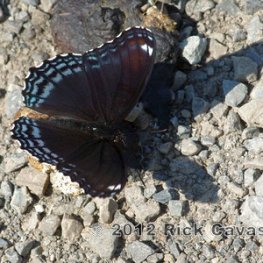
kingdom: Animalia
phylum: Arthropoda
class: Insecta
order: Lepidoptera
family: Nymphalidae
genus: Limenitis
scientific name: Limenitis astyanax
